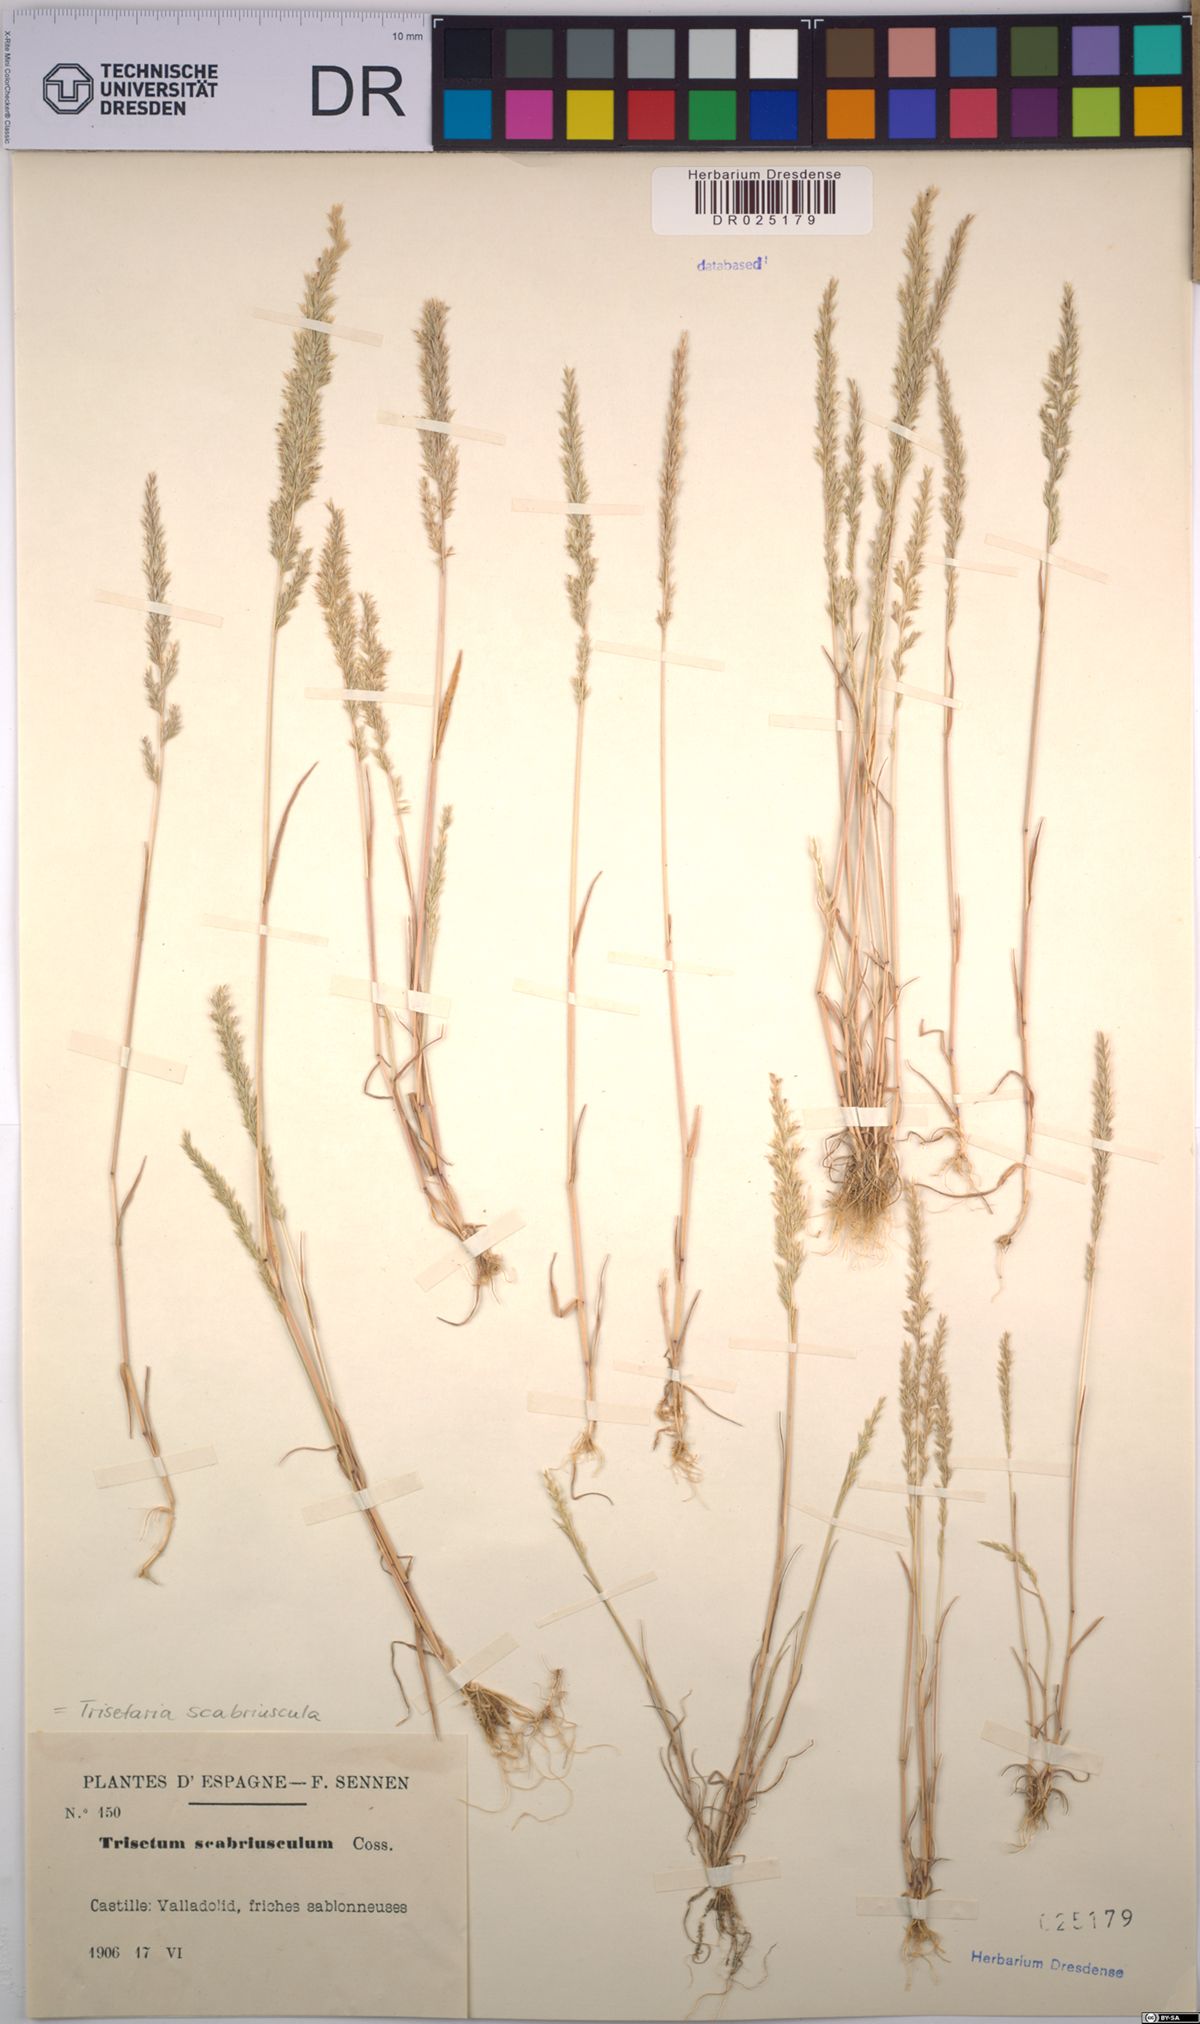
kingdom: Plantae
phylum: Tracheophyta
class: Liliopsida
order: Poales
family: Poaceae
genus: Trisetaria
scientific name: Trisetaria scabriuscula
